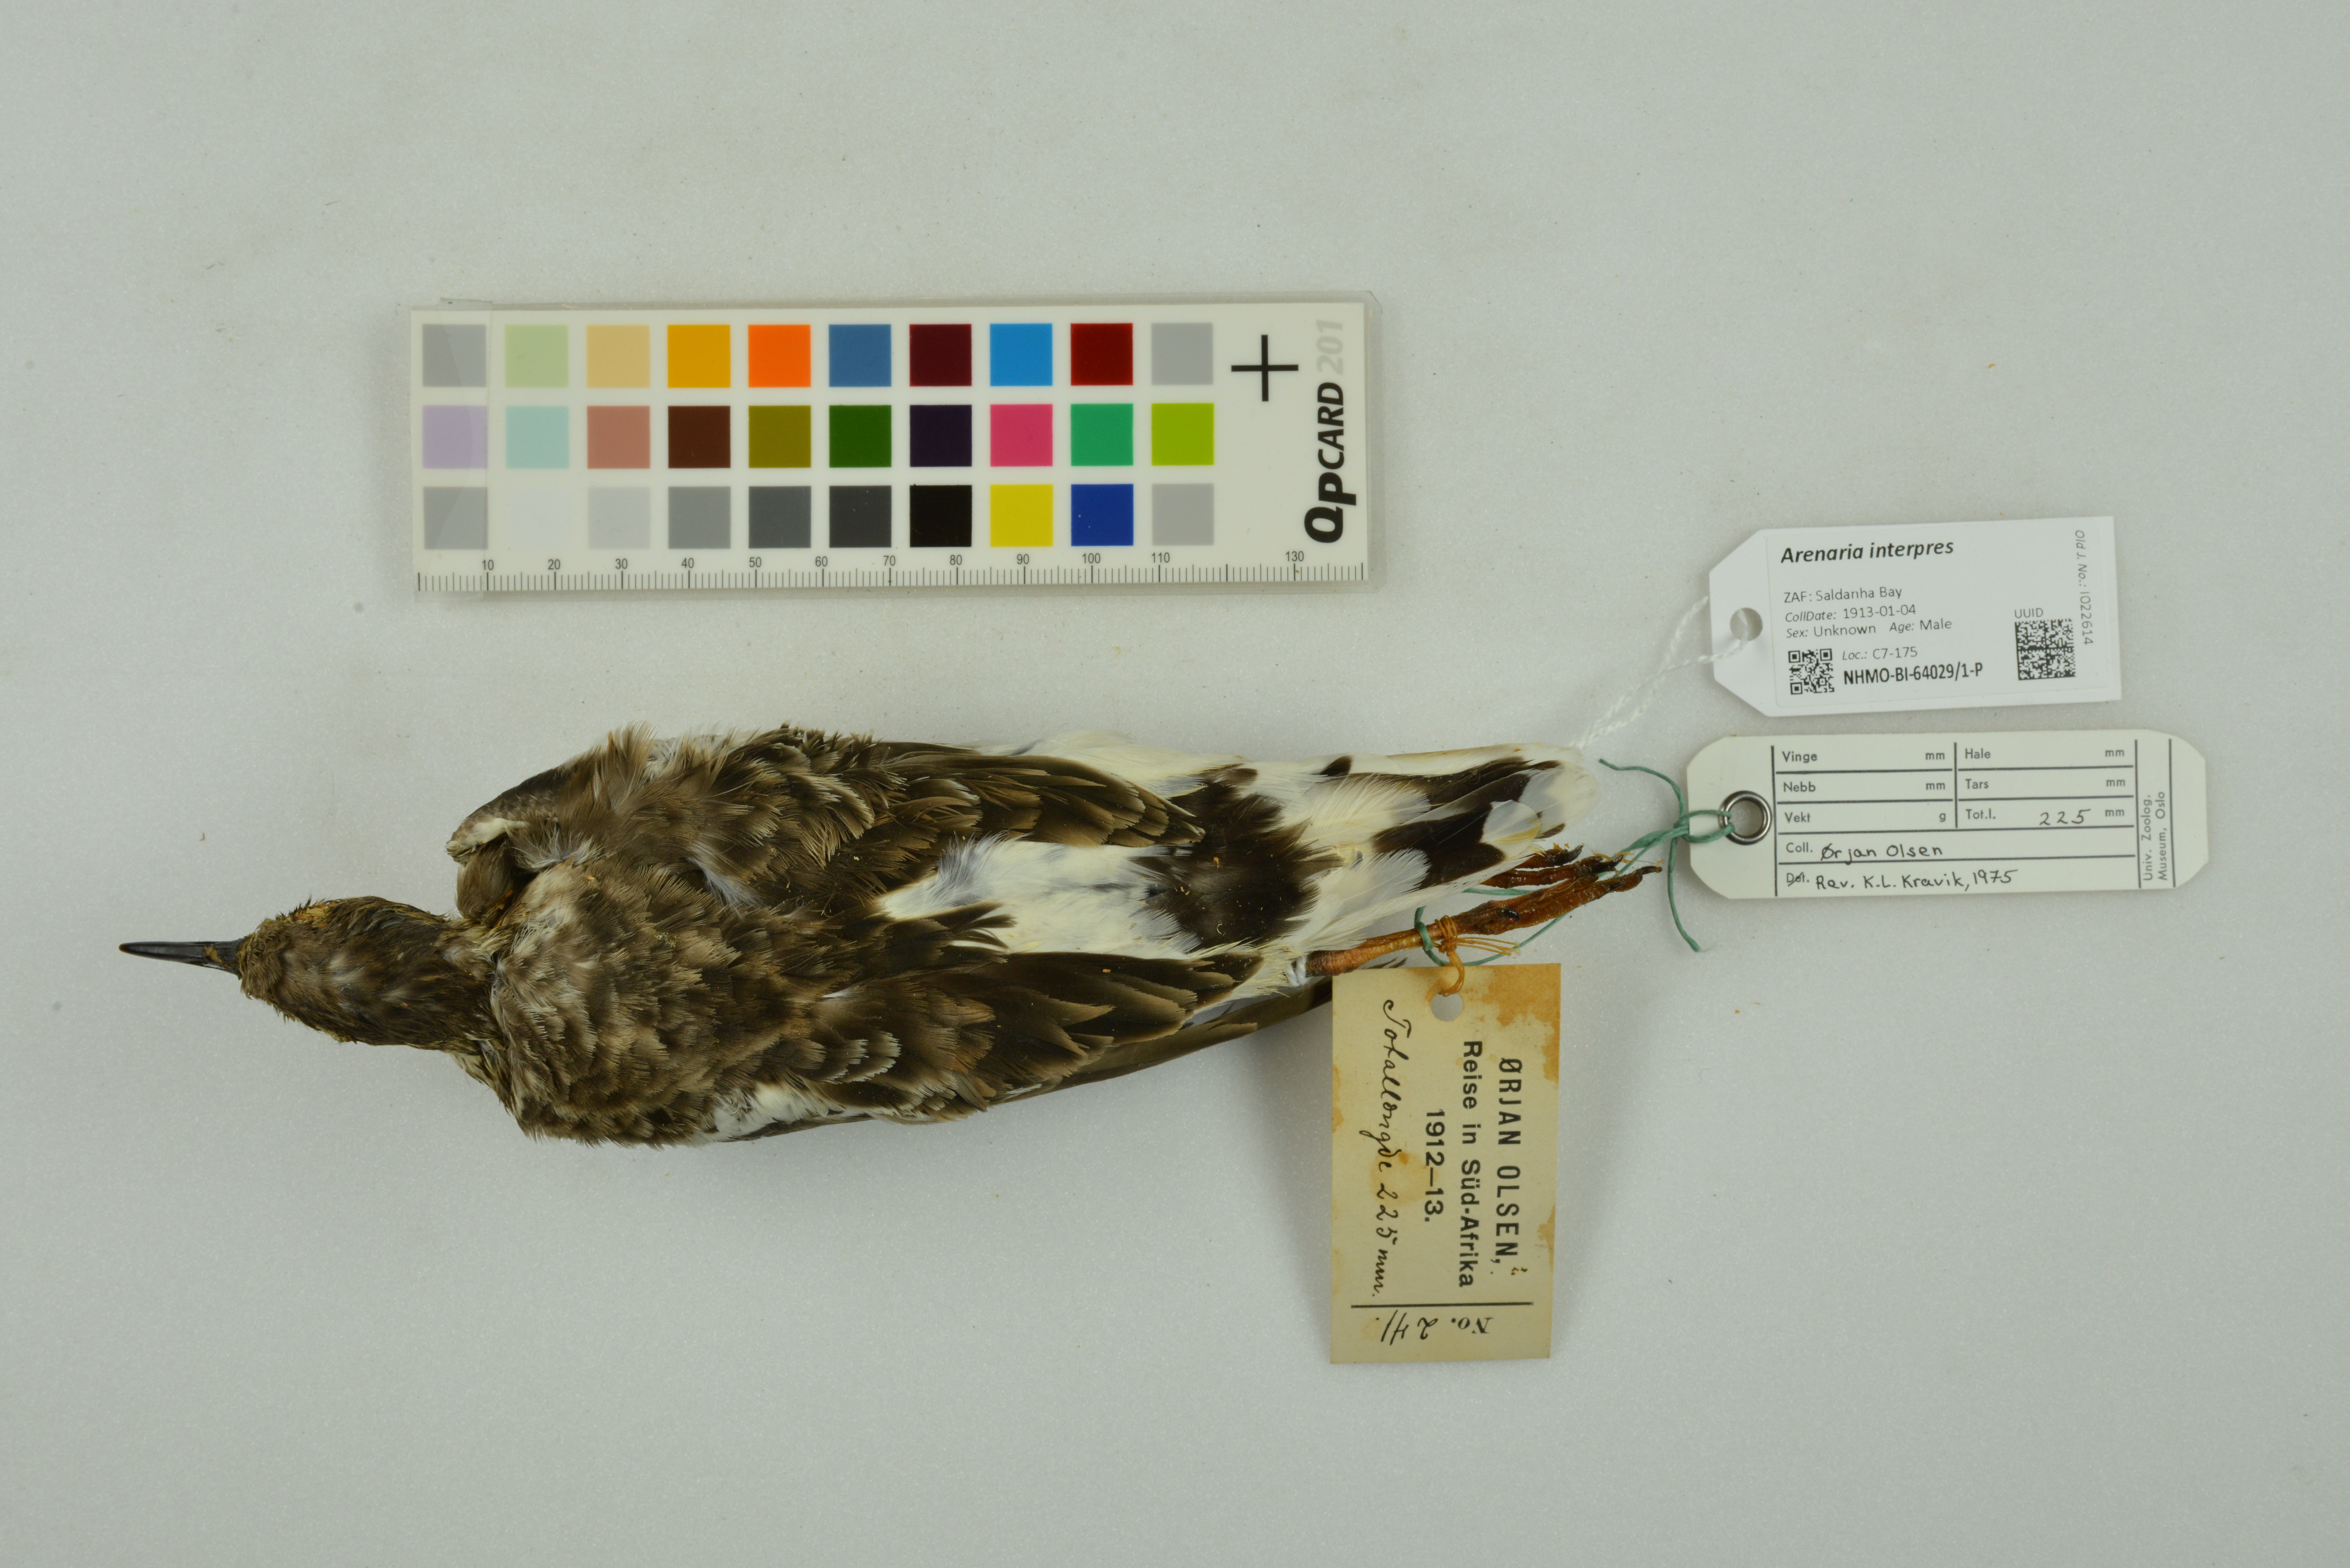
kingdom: Animalia
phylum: Chordata
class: Aves
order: Charadriiformes
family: Scolopacidae
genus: Arenaria
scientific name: Arenaria interpres
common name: Ruddy turnstone
